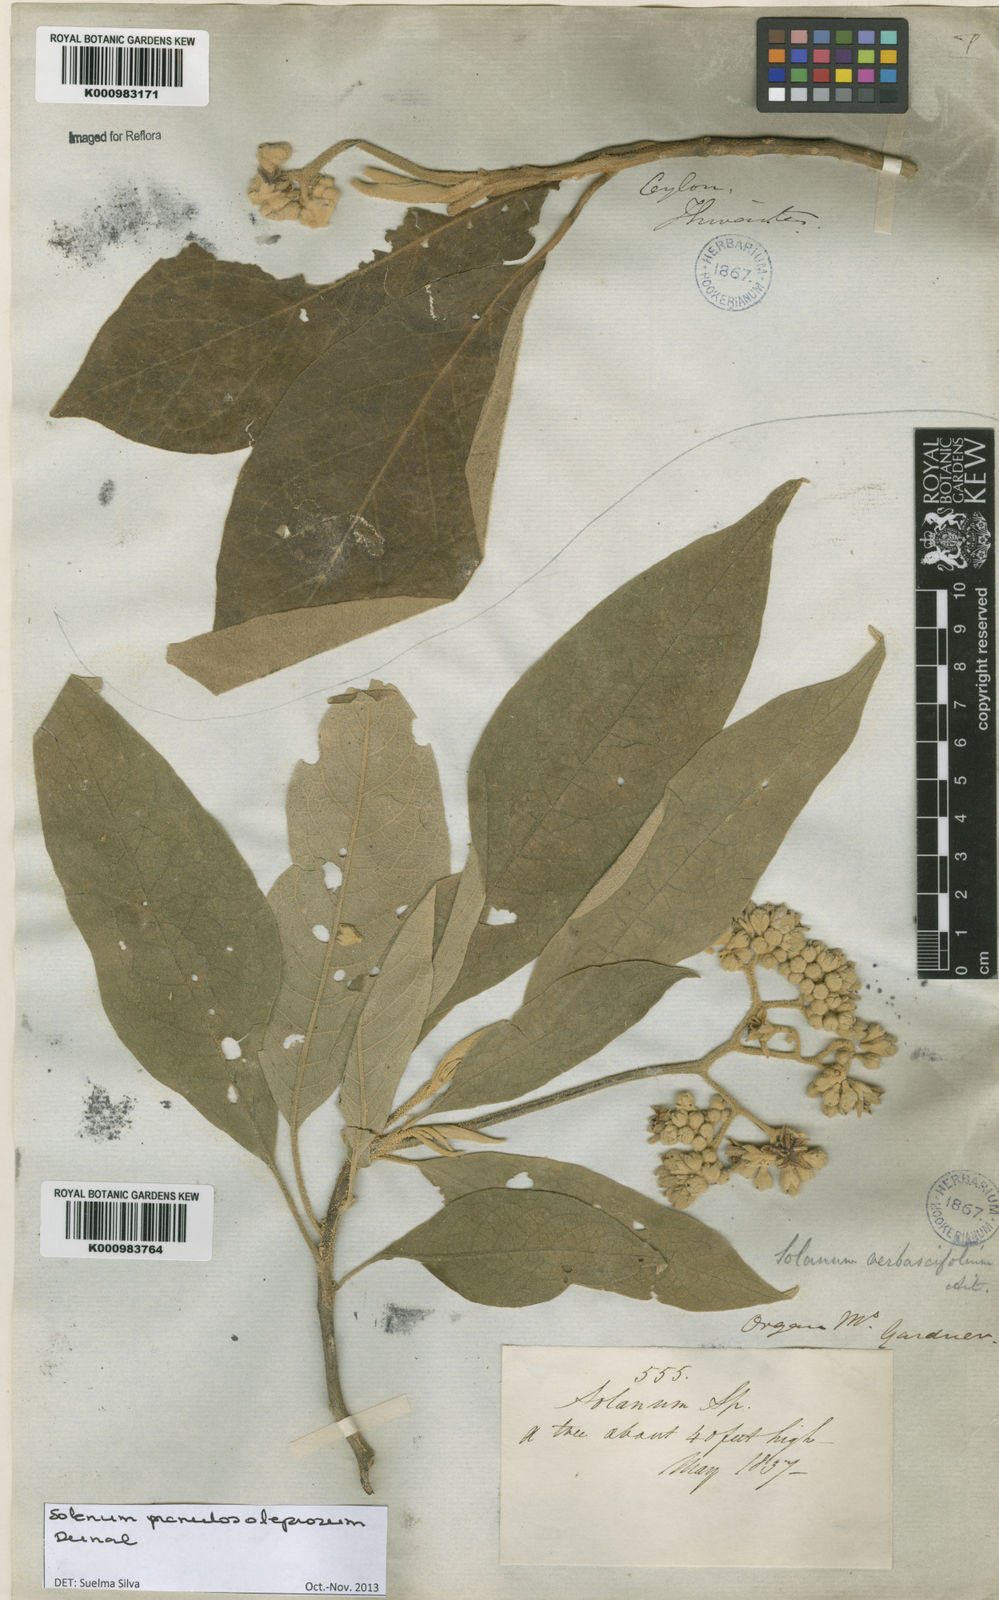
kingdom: Plantae
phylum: Tracheophyta
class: Magnoliopsida
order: Solanales
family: Solanaceae
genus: Solanum
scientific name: Solanum granulosoleprosum
